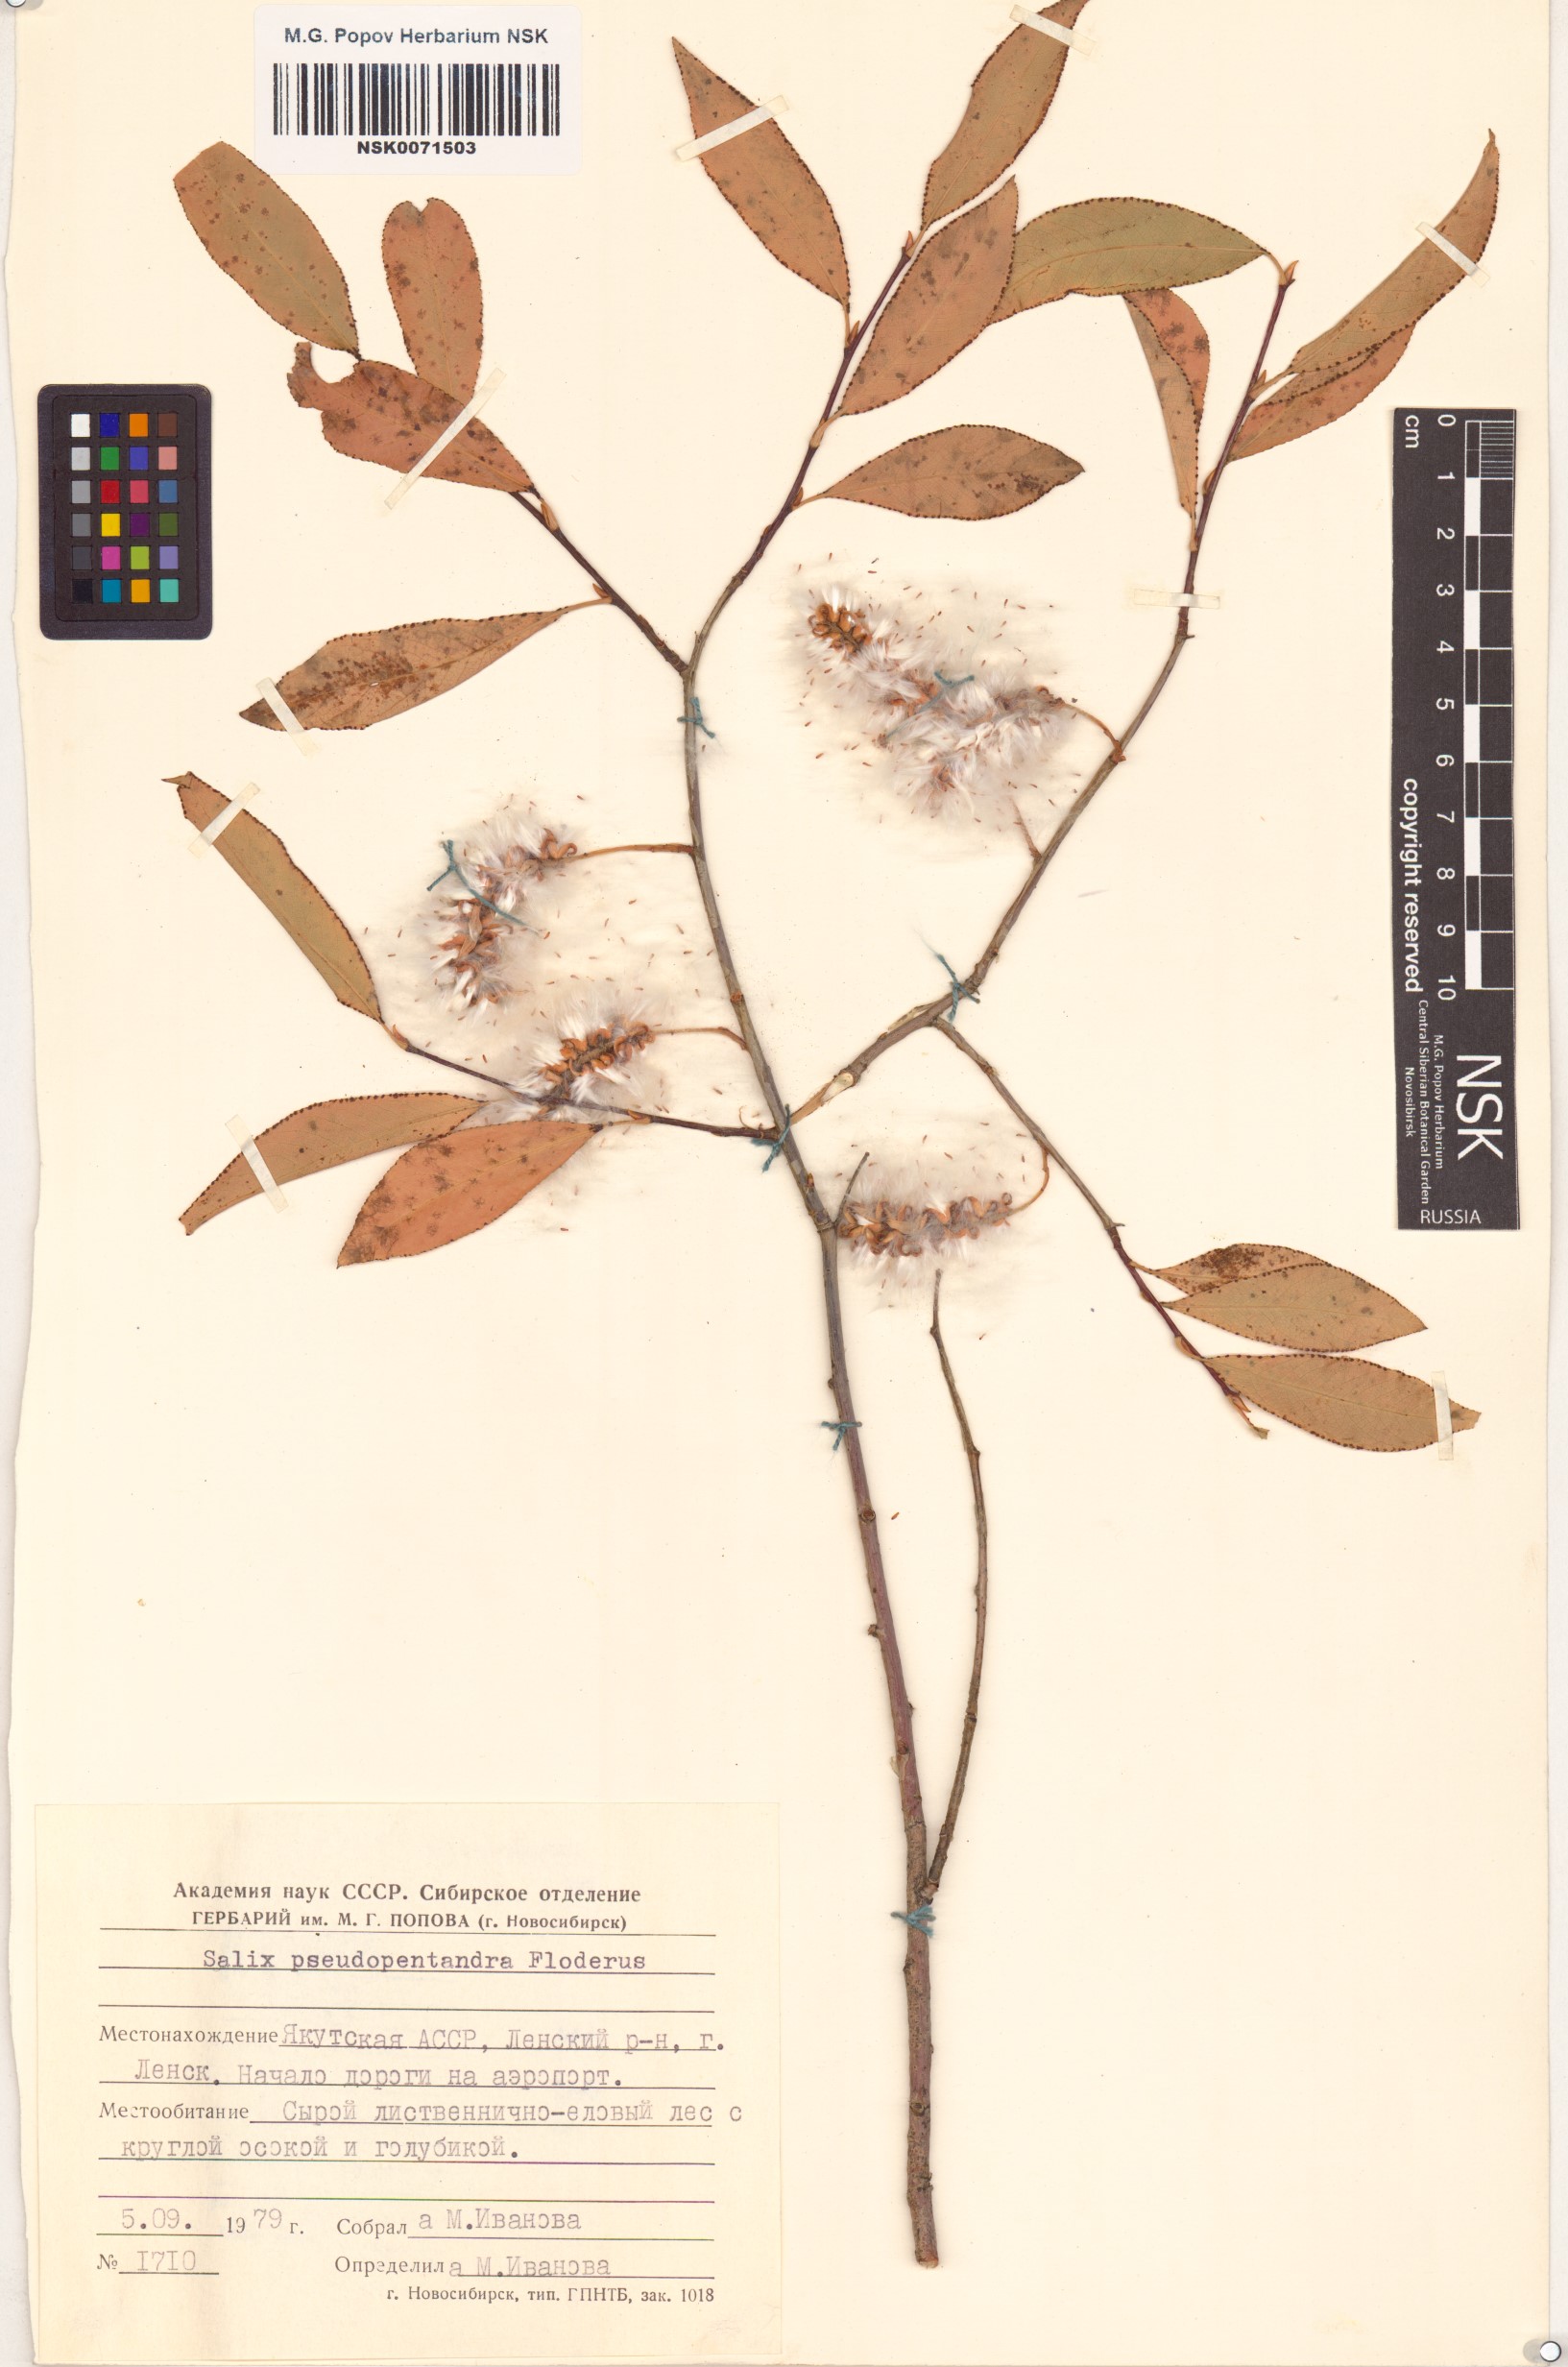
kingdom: Plantae
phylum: Tracheophyta
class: Magnoliopsida
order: Malpighiales
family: Salicaceae
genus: Salix
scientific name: Salix pseudopentandra
